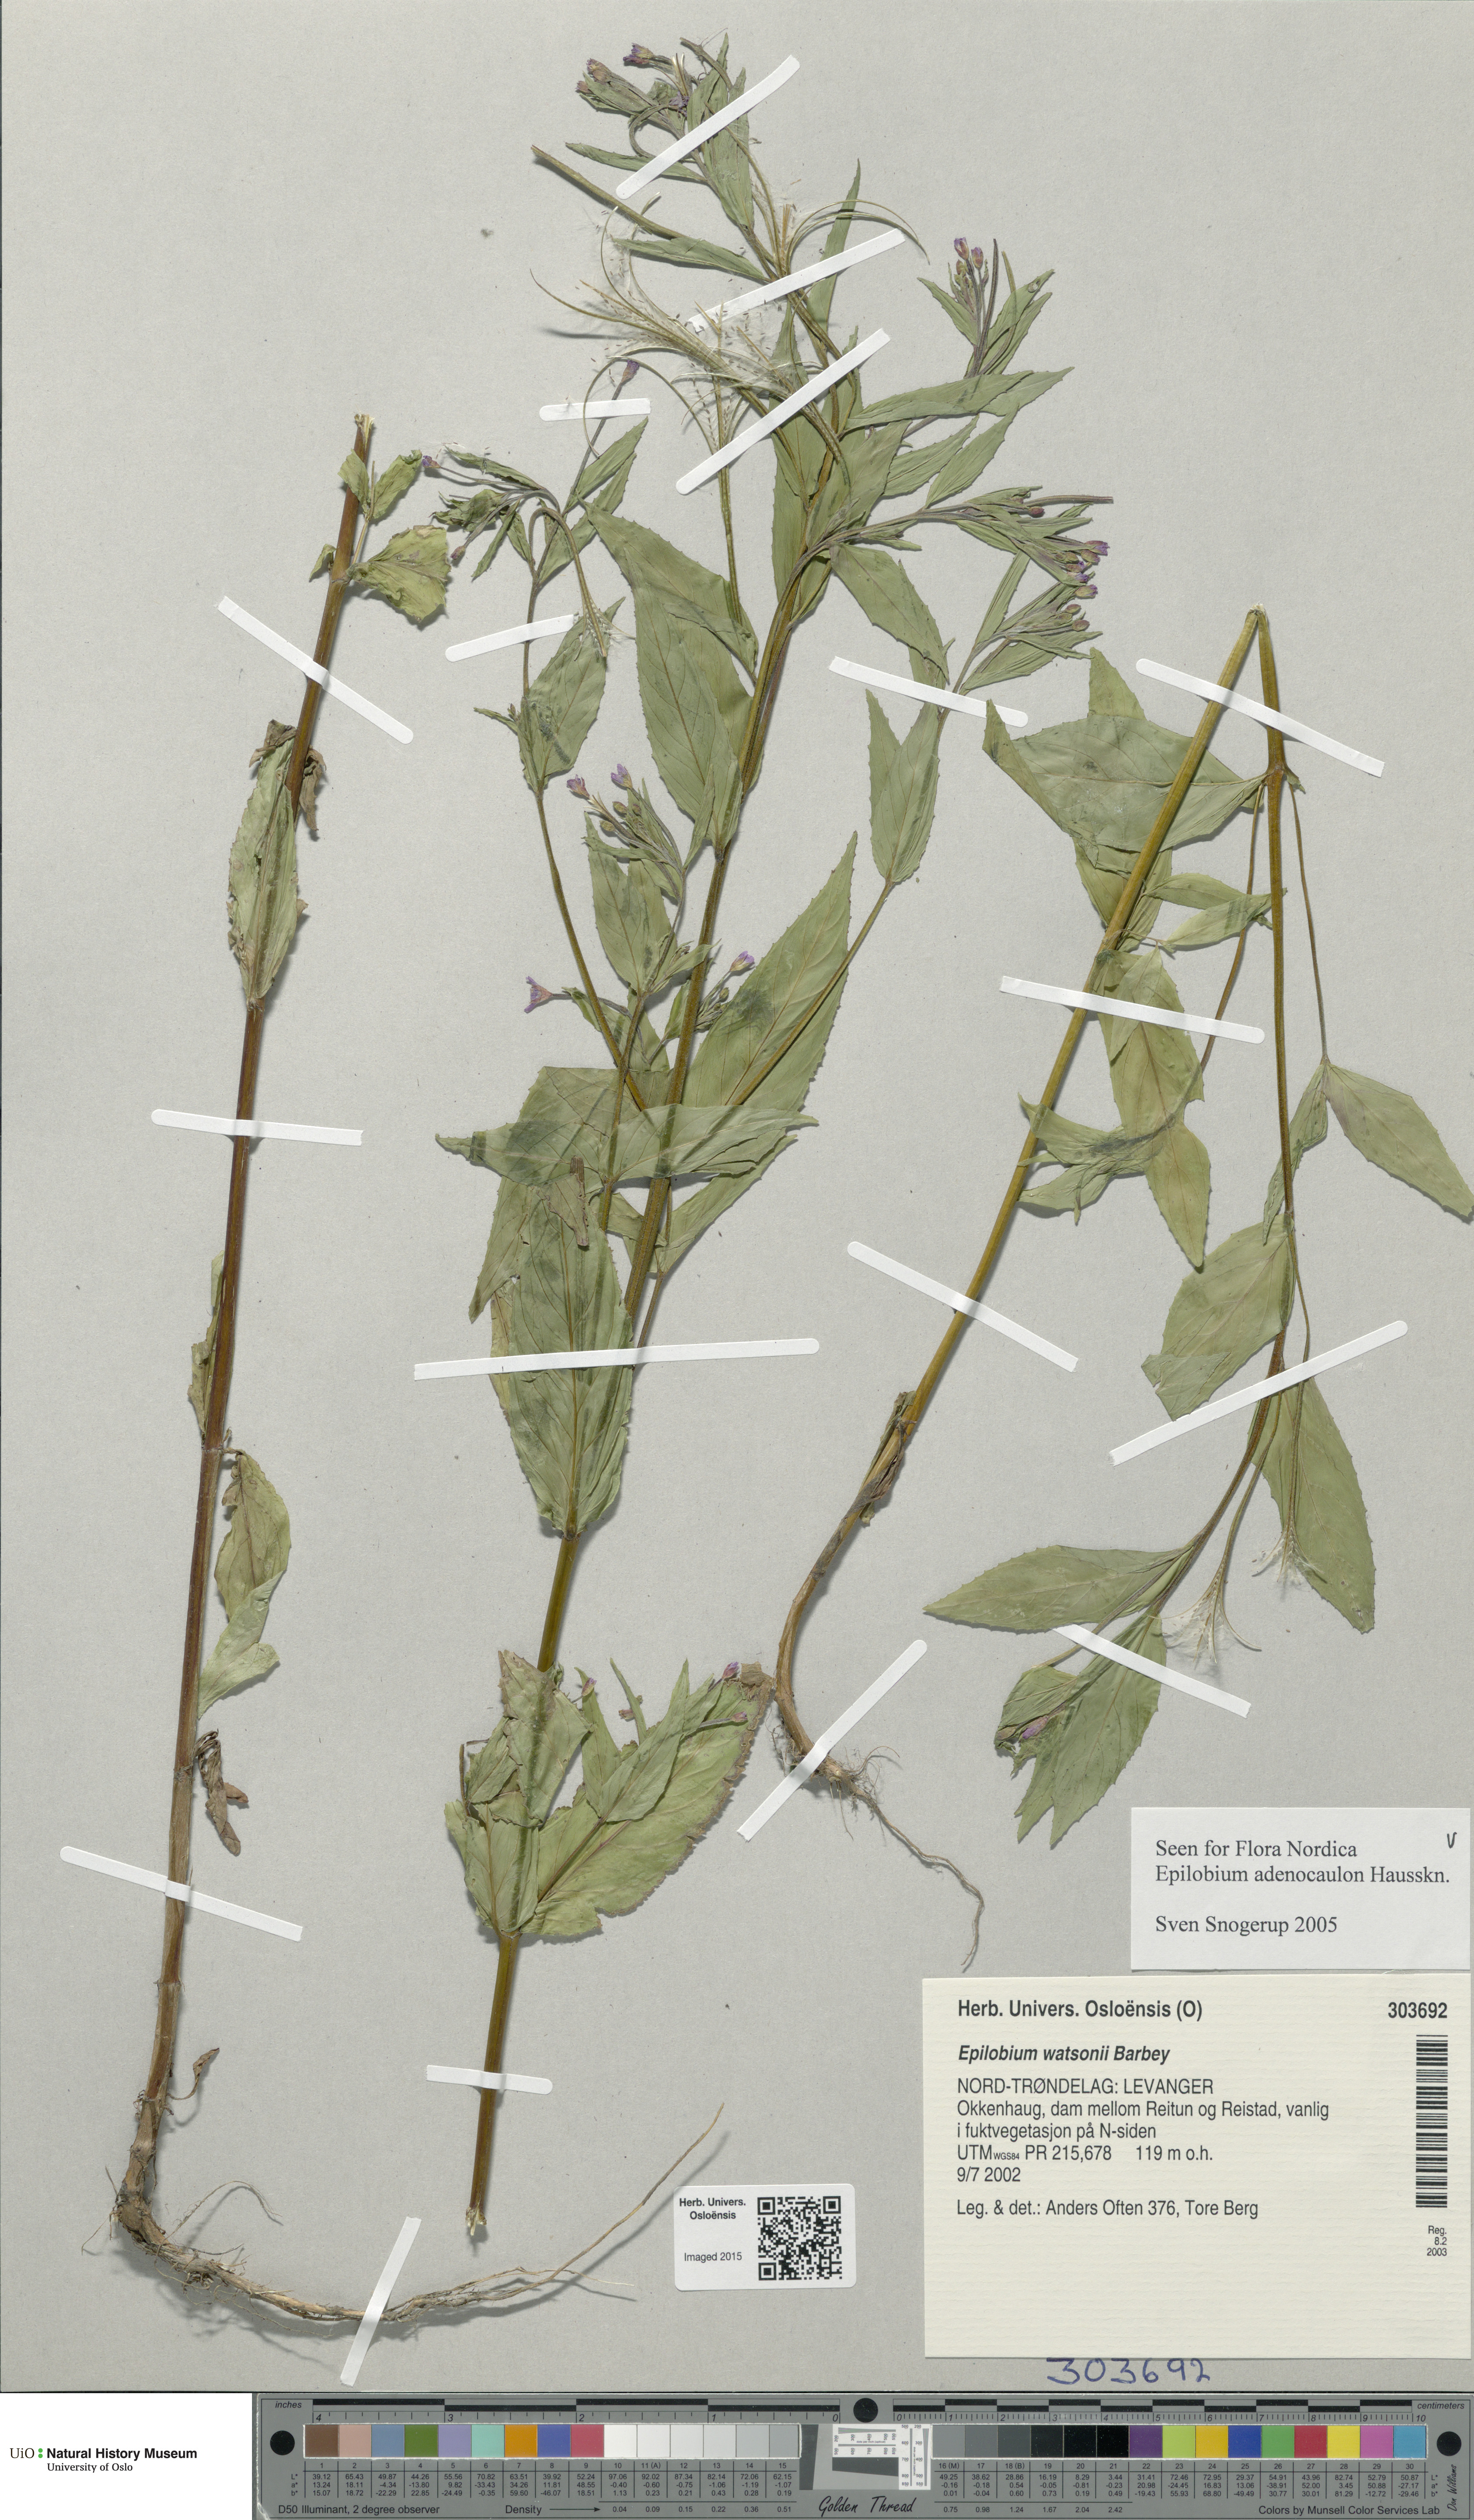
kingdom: Plantae
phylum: Tracheophyta
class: Magnoliopsida
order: Myrtales
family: Onagraceae
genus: Epilobium
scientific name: Epilobium ciliatum
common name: American willowherb
